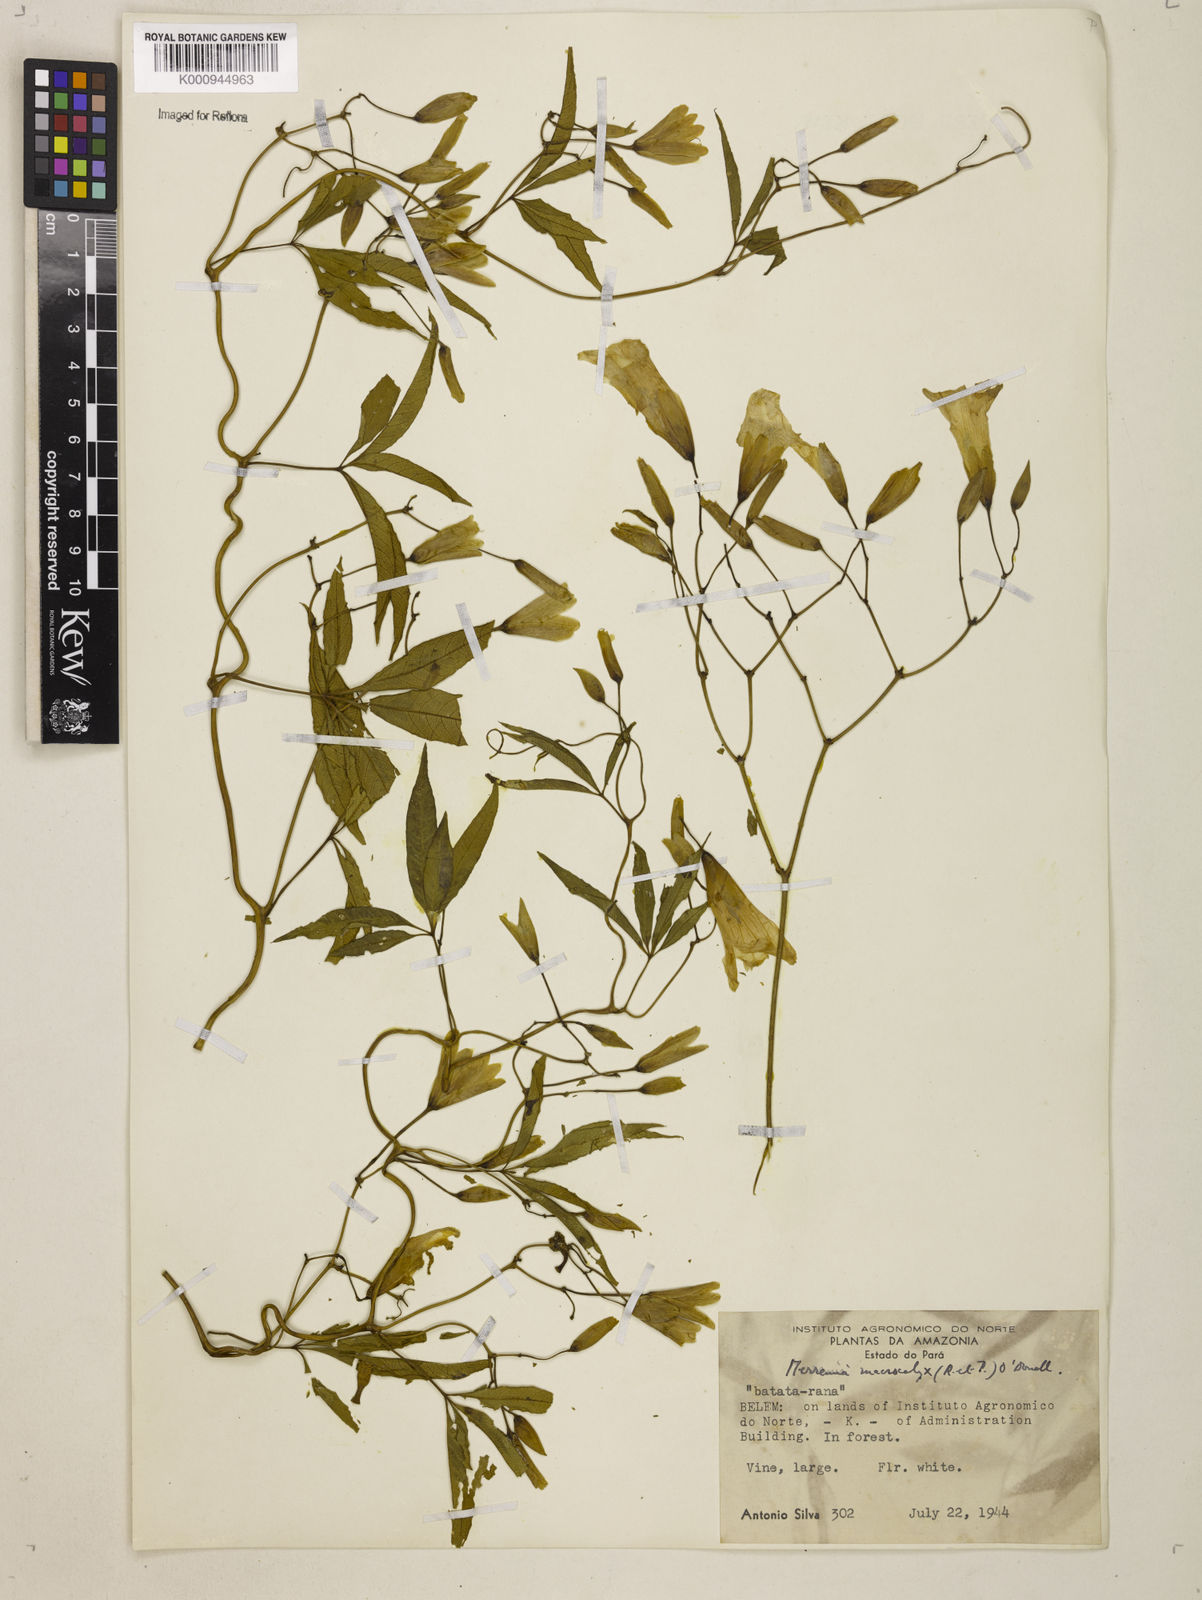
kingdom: Plantae
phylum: Tracheophyta
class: Magnoliopsida
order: Solanales
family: Convolvulaceae
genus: Distimake
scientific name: Distimake macrocalyx
